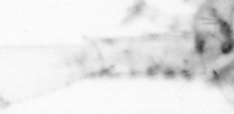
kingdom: Animalia
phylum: Arthropoda
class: Copepoda
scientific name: Copepoda
